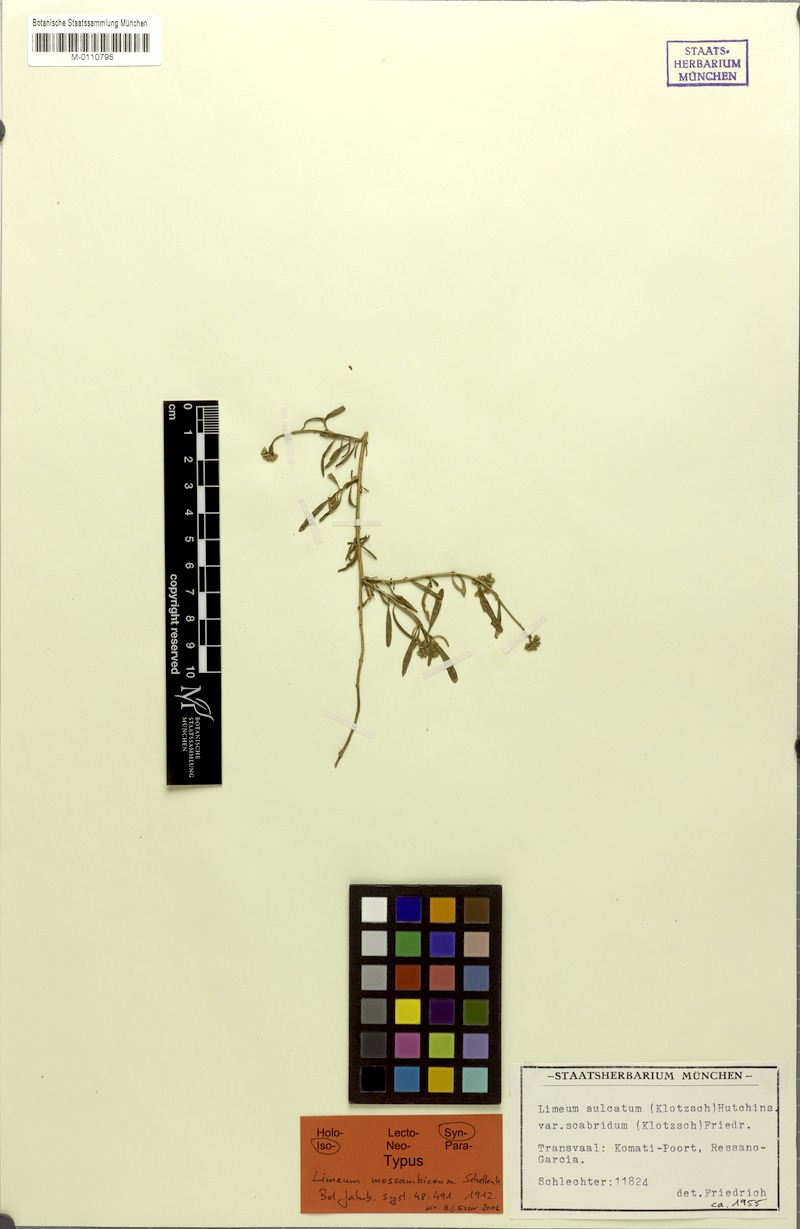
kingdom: Plantae
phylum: Tracheophyta
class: Magnoliopsida
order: Caryophyllales
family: Limeaceae
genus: Limeum
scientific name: Limeum sulcatum
